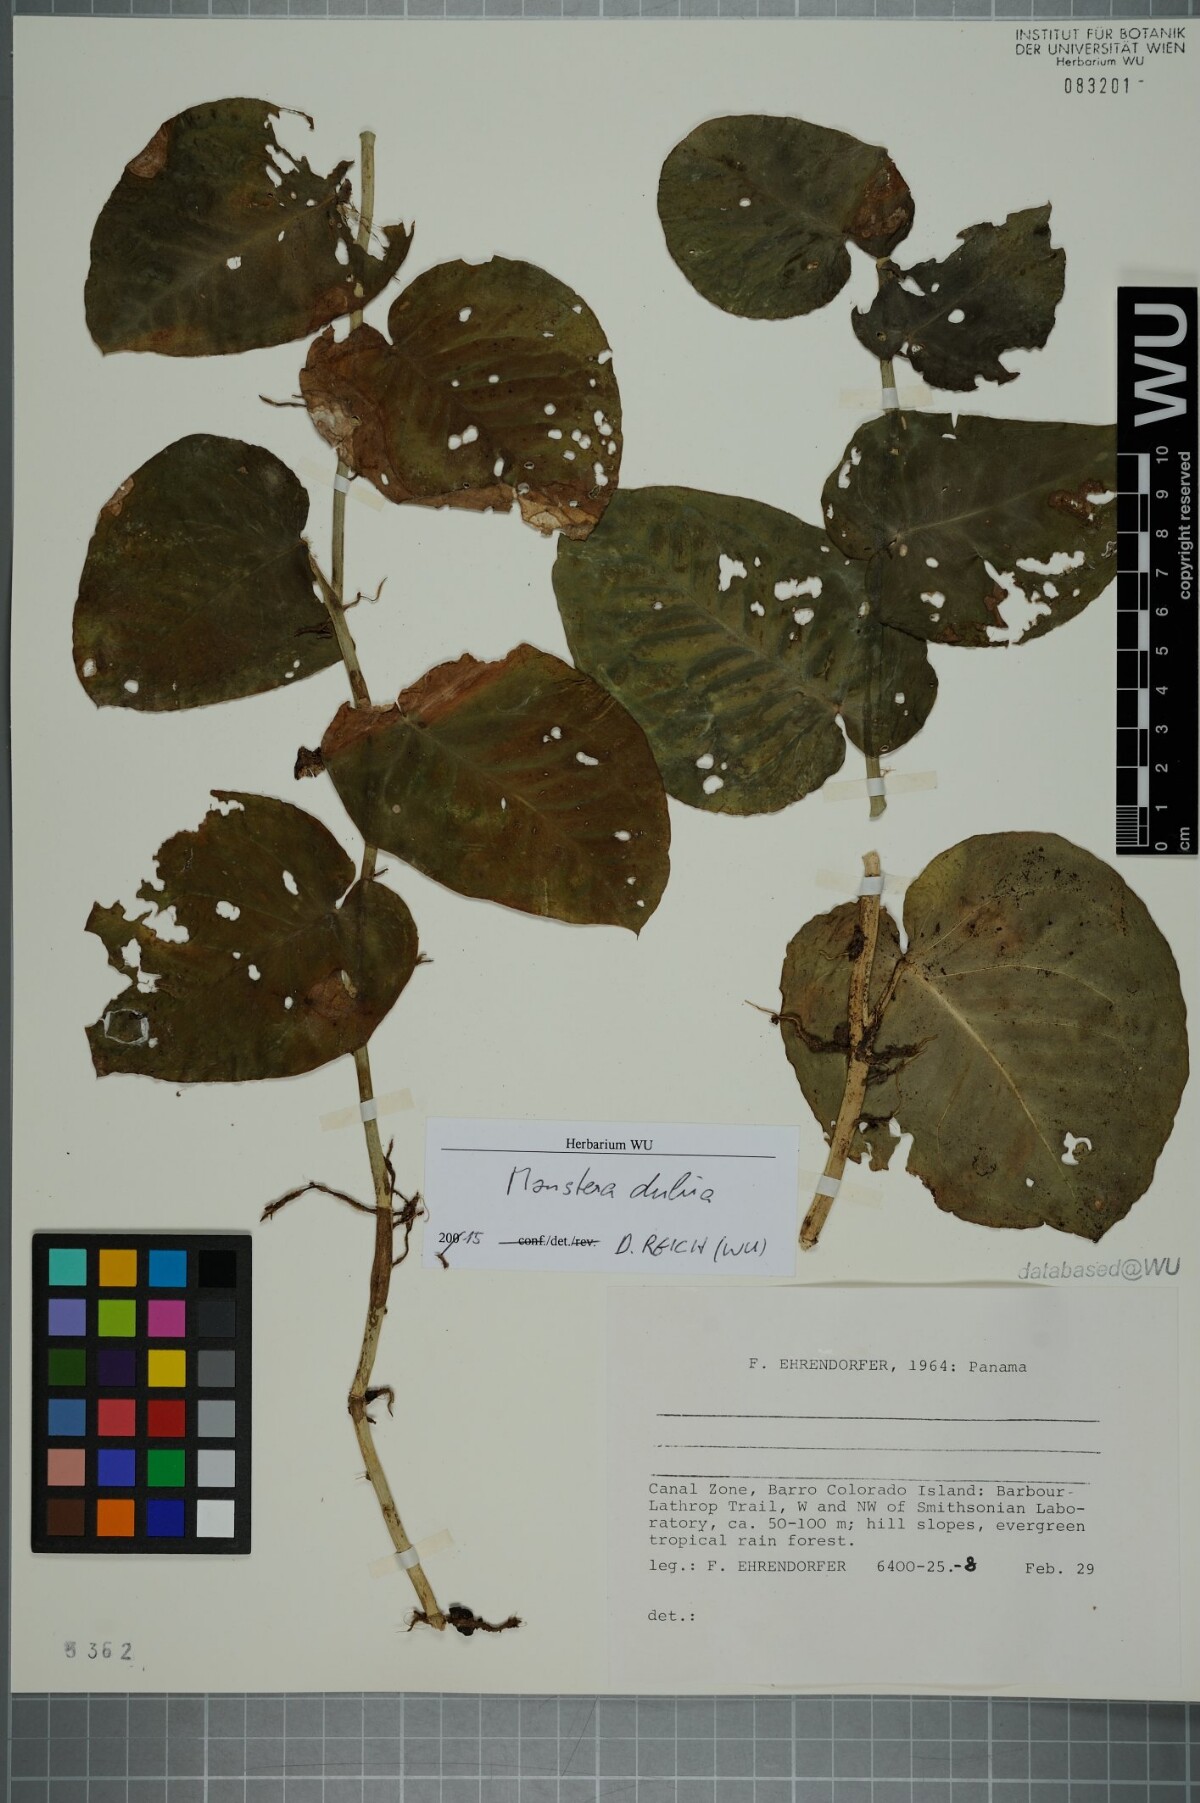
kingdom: Plantae
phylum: Tracheophyta
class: Liliopsida
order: Alismatales
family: Araceae
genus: Monstera
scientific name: Monstera dubia
